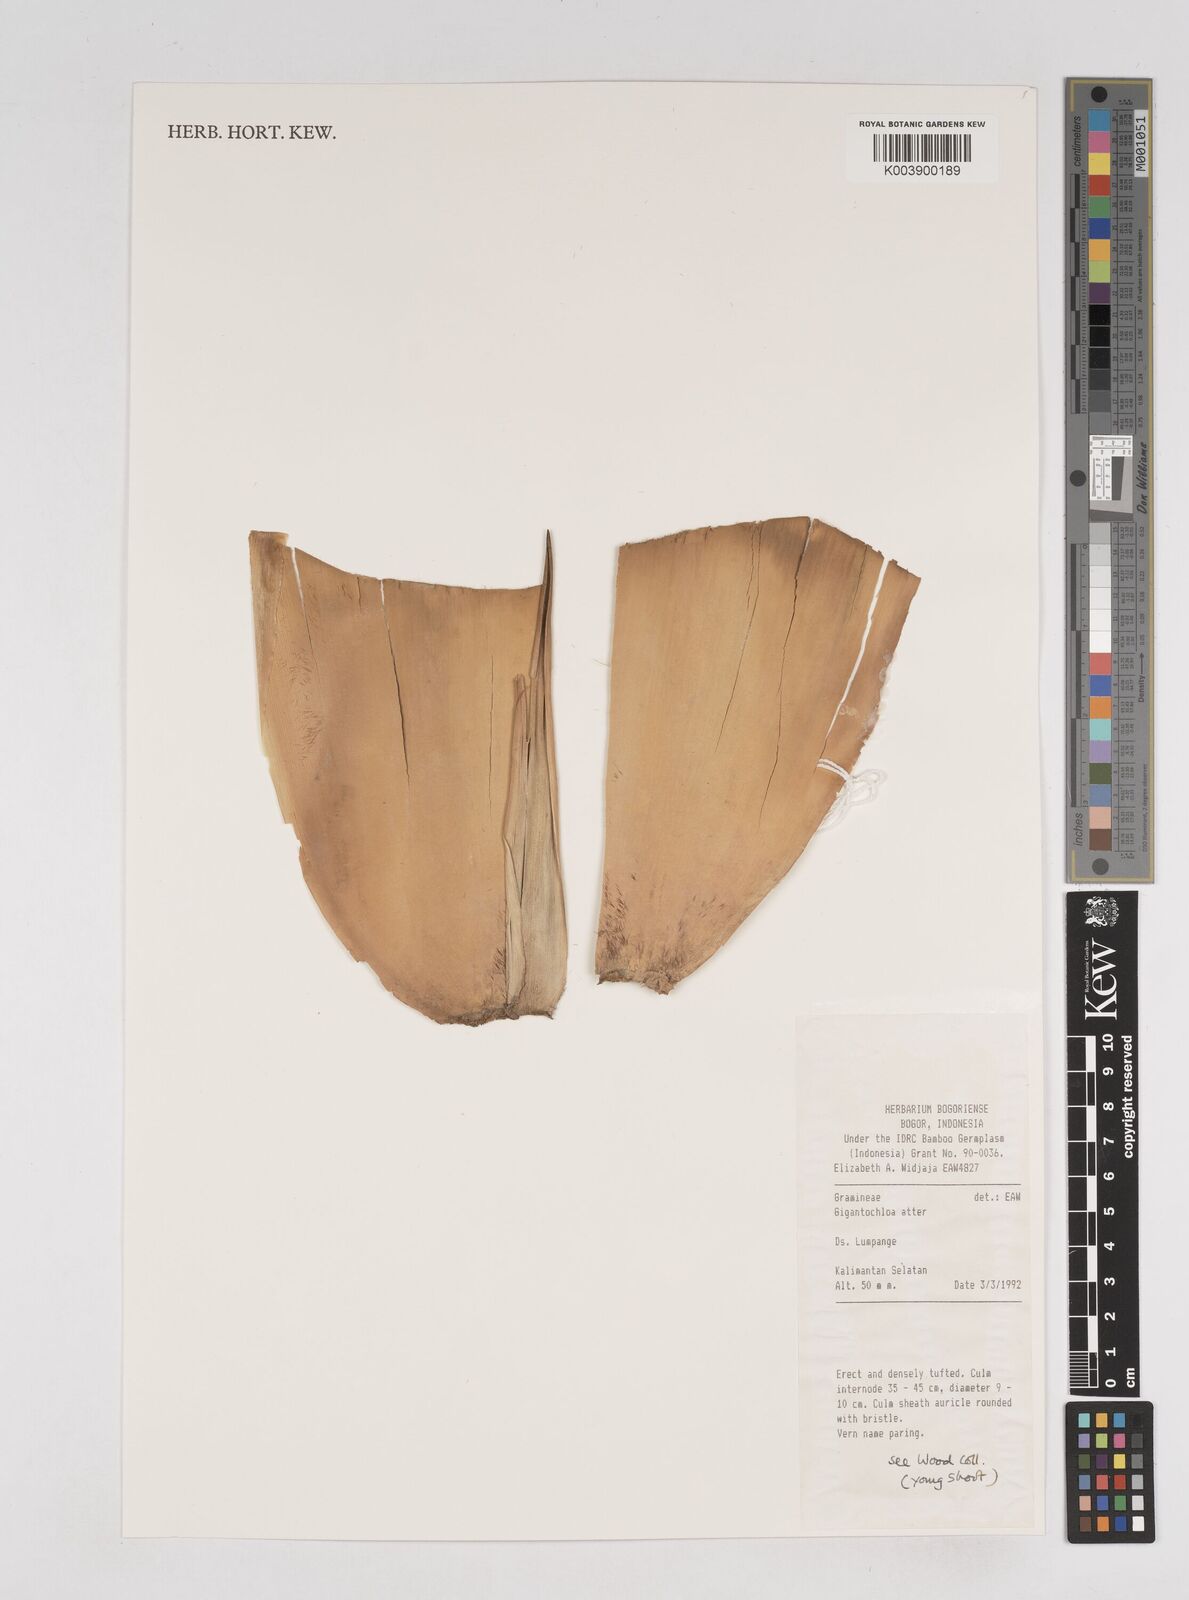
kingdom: Plantae
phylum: Tracheophyta
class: Liliopsida
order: Poales
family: Poaceae
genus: Gigantochloa
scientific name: Gigantochloa atter
